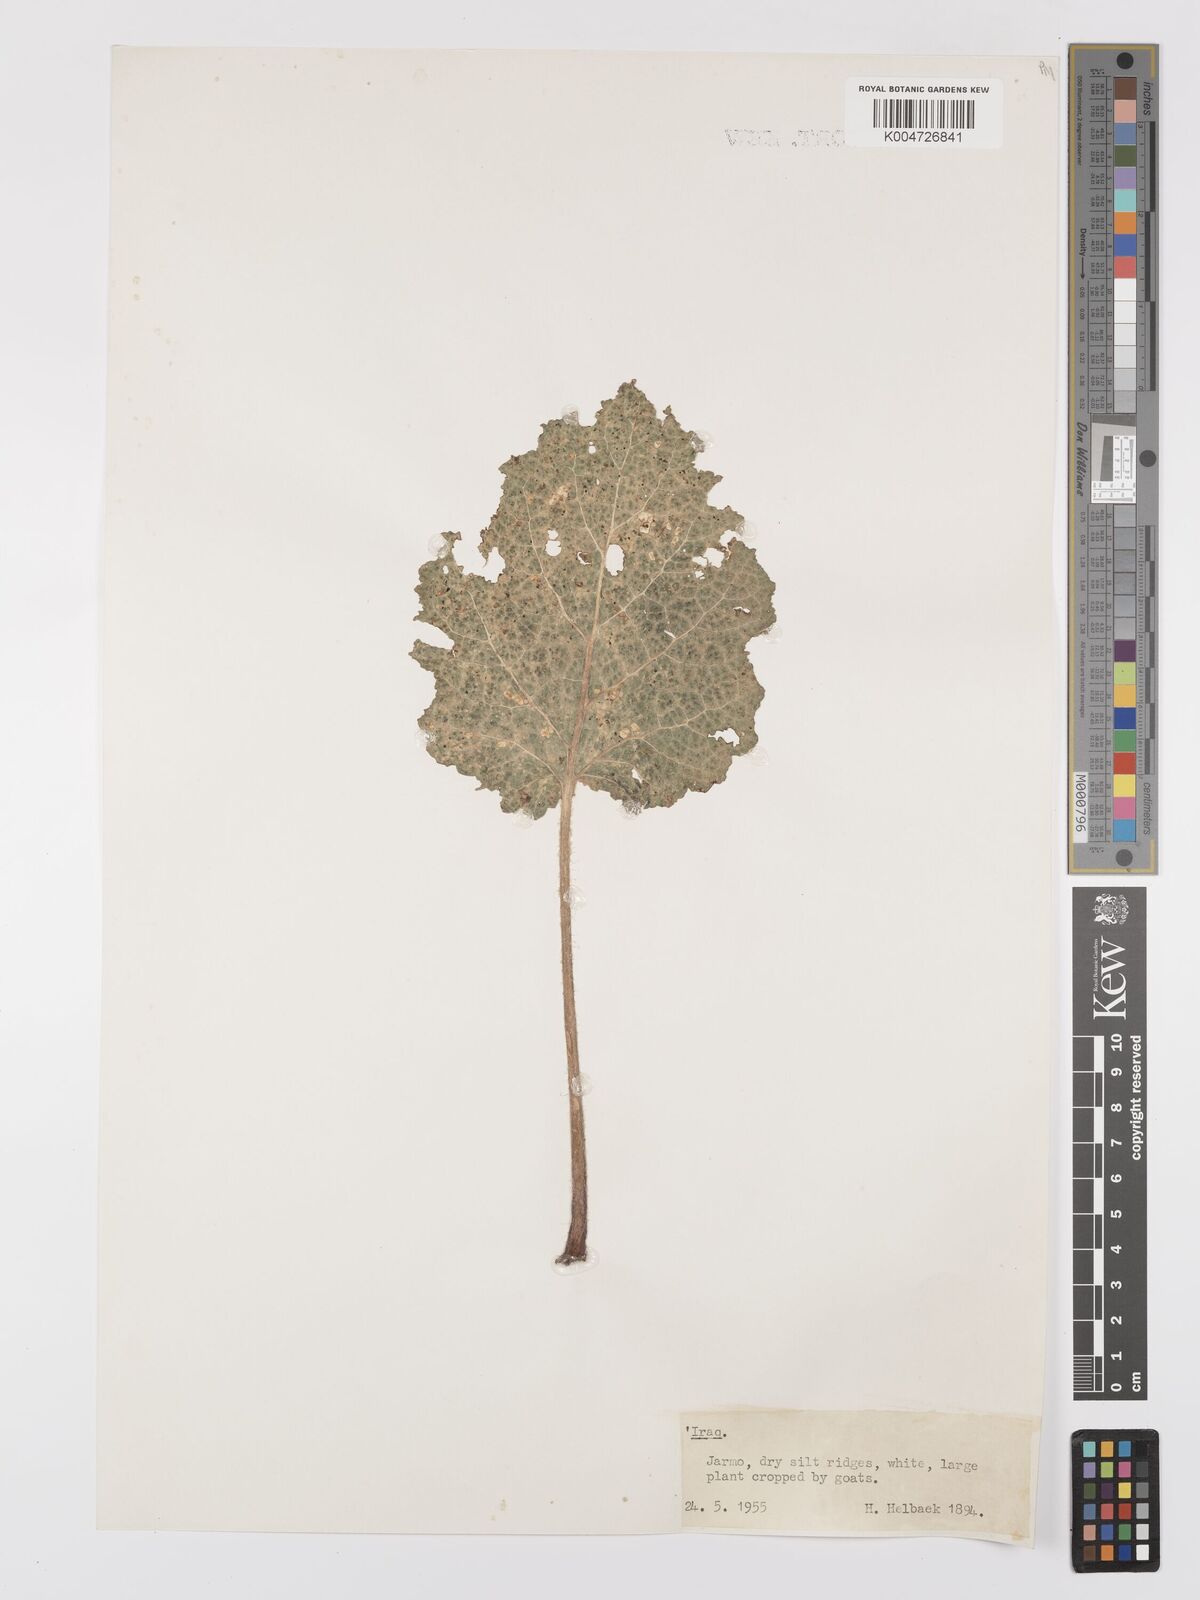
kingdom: Plantae
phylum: Tracheophyta
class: Magnoliopsida
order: Lamiales
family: Lamiaceae
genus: Salvia
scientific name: Salvia
